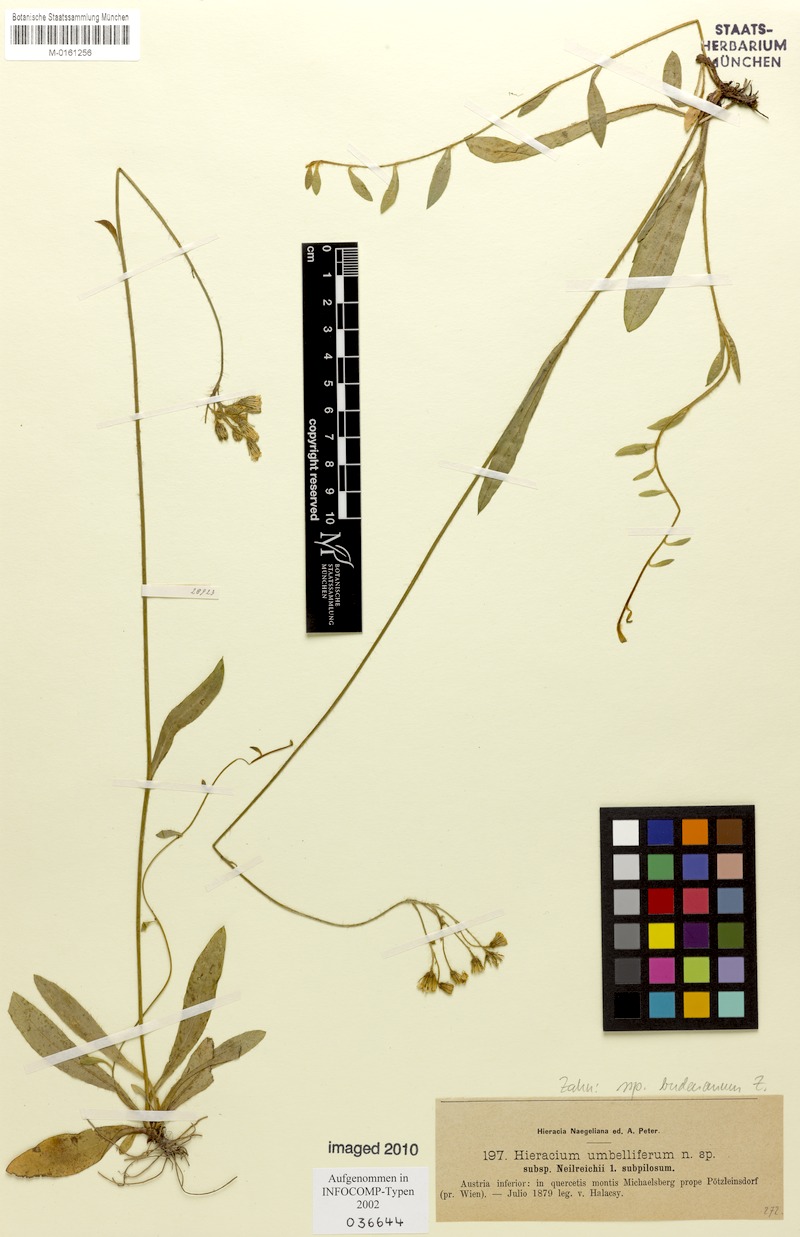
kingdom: Plantae
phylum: Tracheophyta
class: Magnoliopsida
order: Asterales
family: Asteraceae
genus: Pilosella
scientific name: Pilosella densiflora
